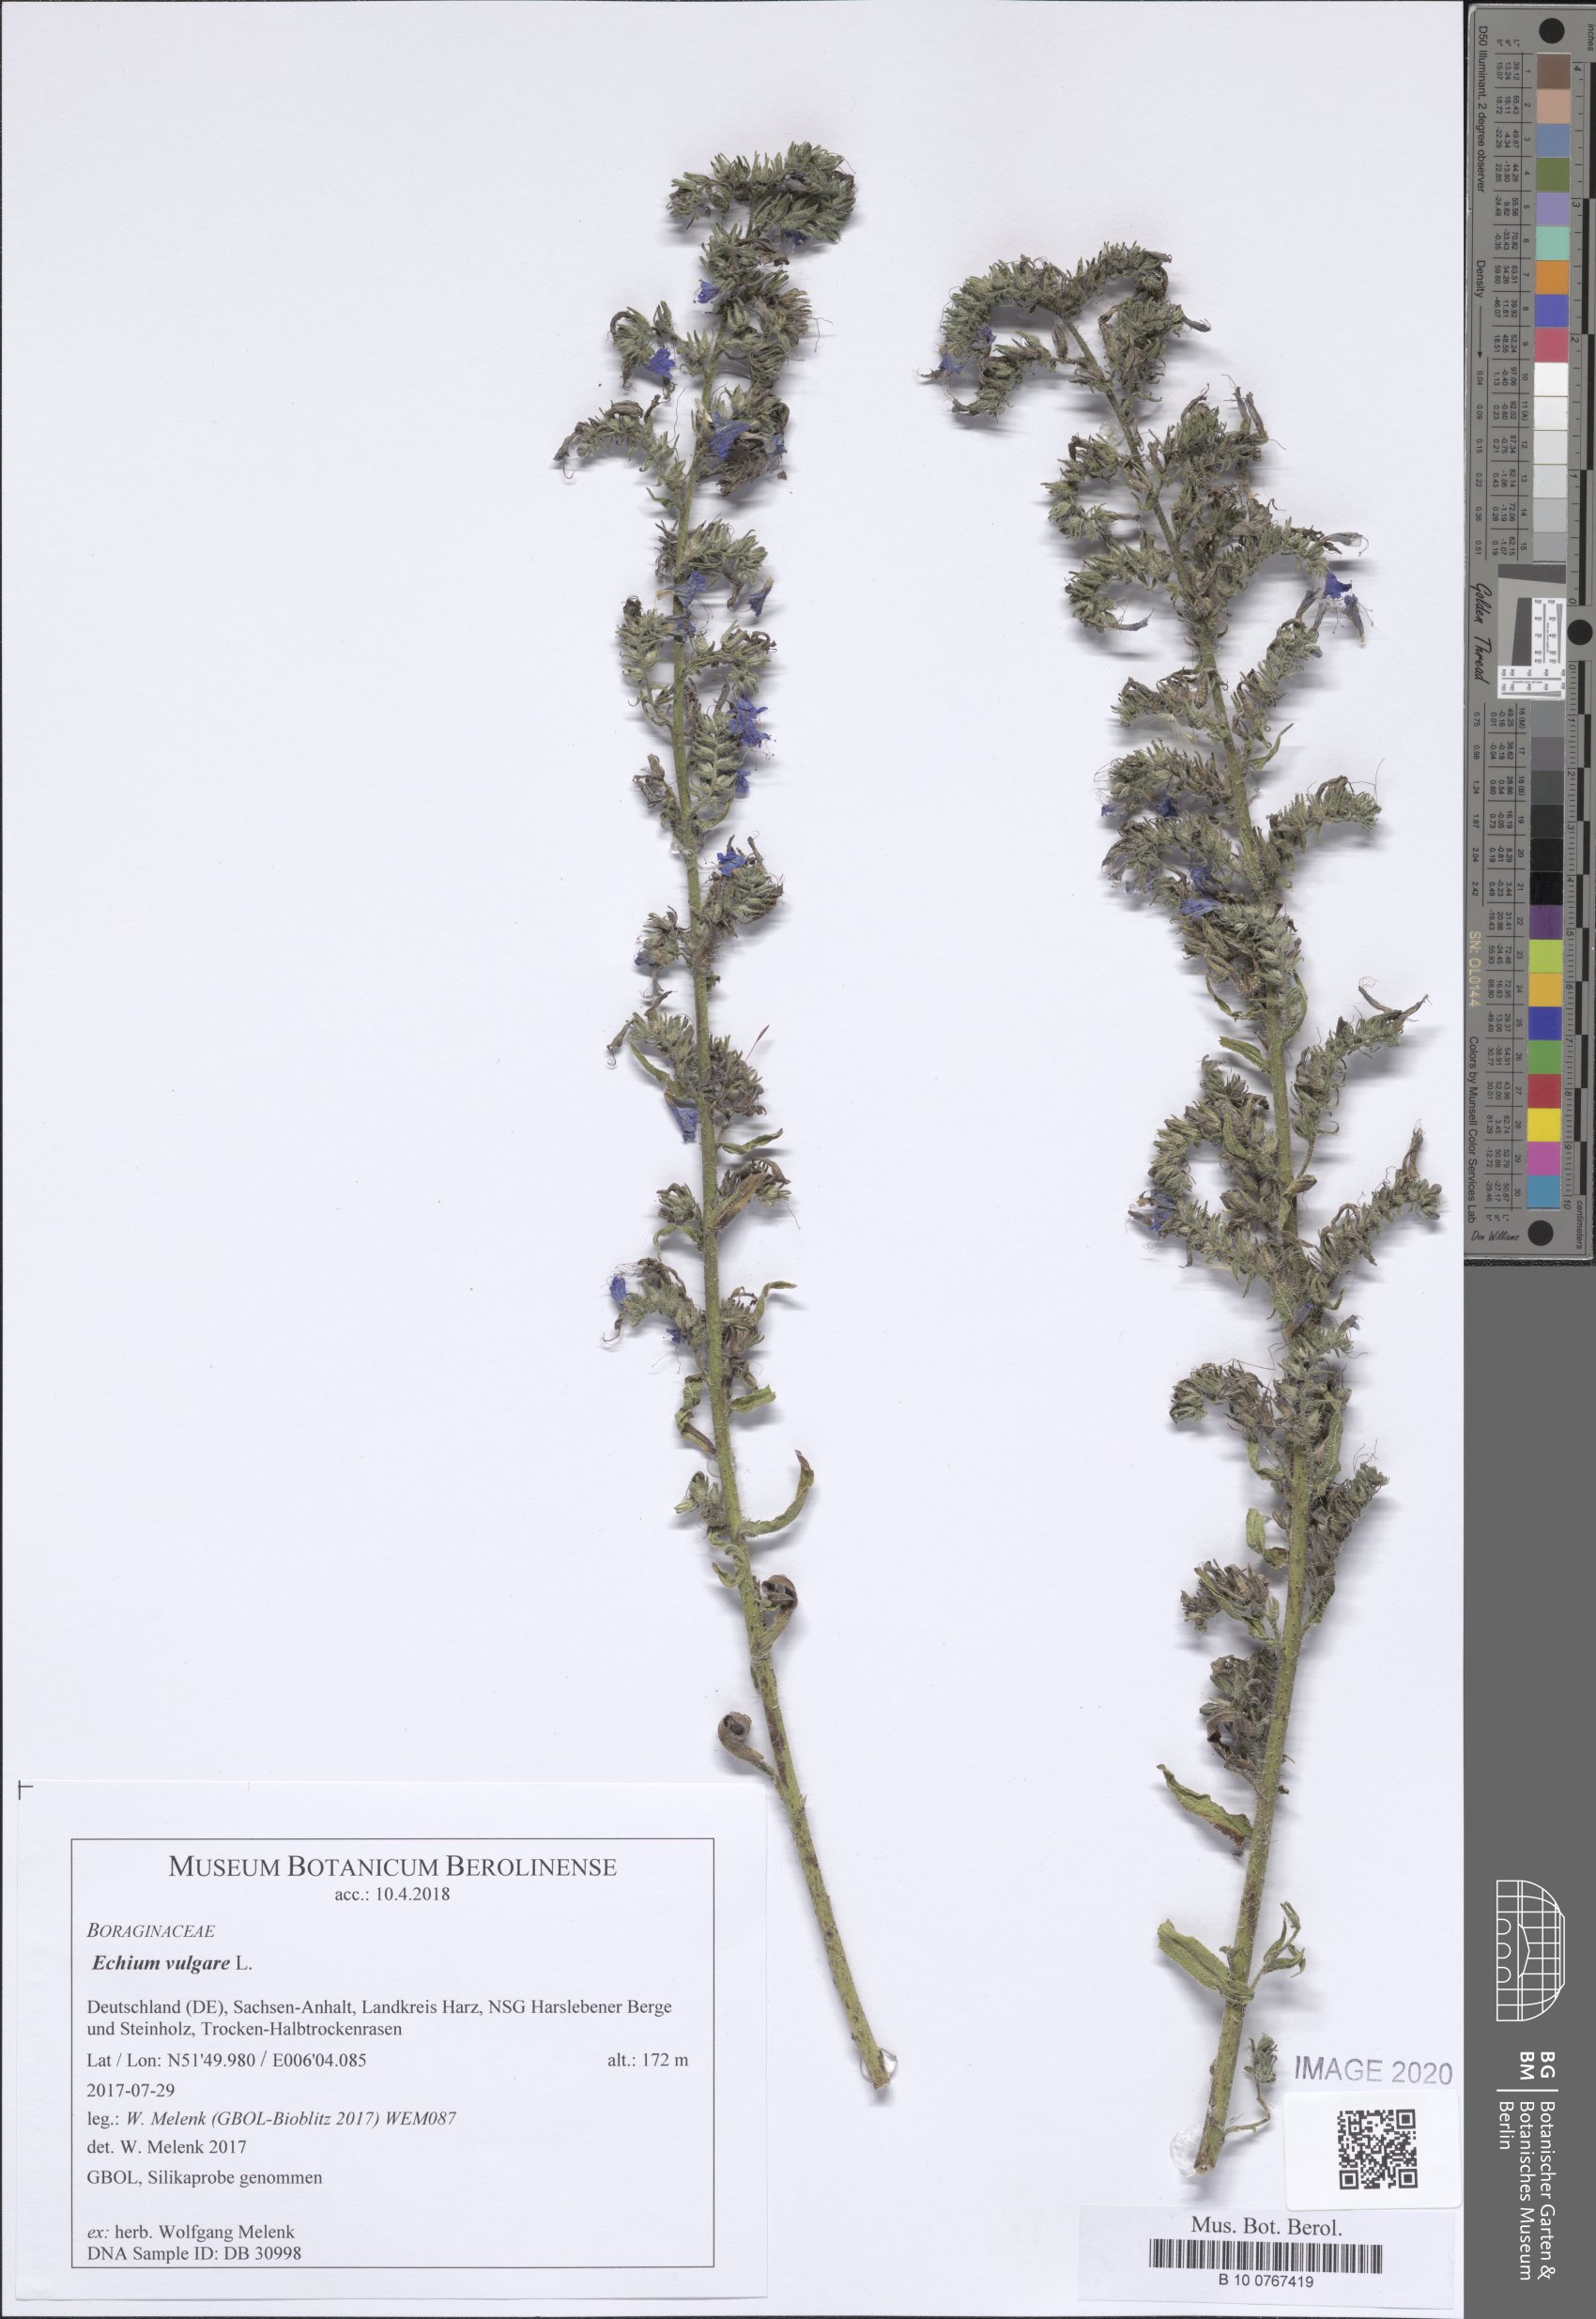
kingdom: Plantae
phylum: Tracheophyta
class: Magnoliopsida
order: Boraginales
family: Boraginaceae
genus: Echium
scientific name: Echium vulgare
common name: Common viper's bugloss
